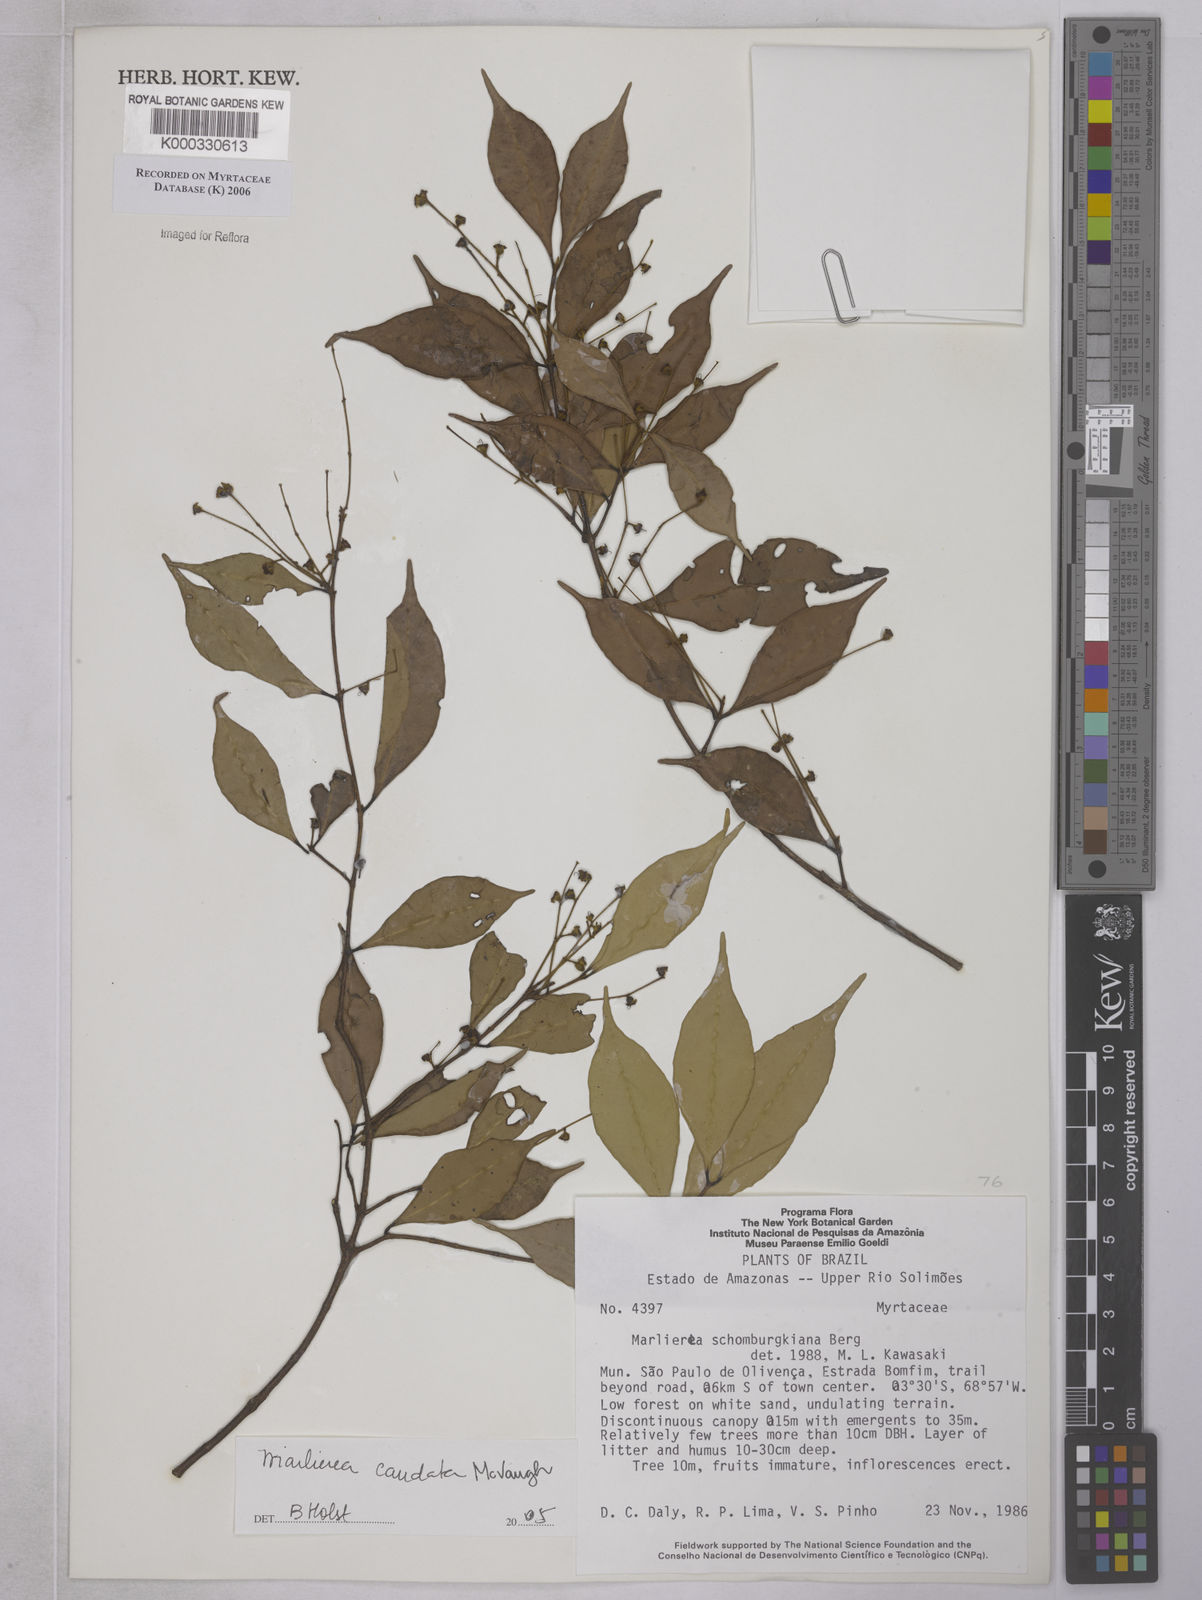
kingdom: Plantae
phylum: Tracheophyta
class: Magnoliopsida
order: Myrtales
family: Myrtaceae
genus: Myrcia
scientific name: Myrcia caudata
